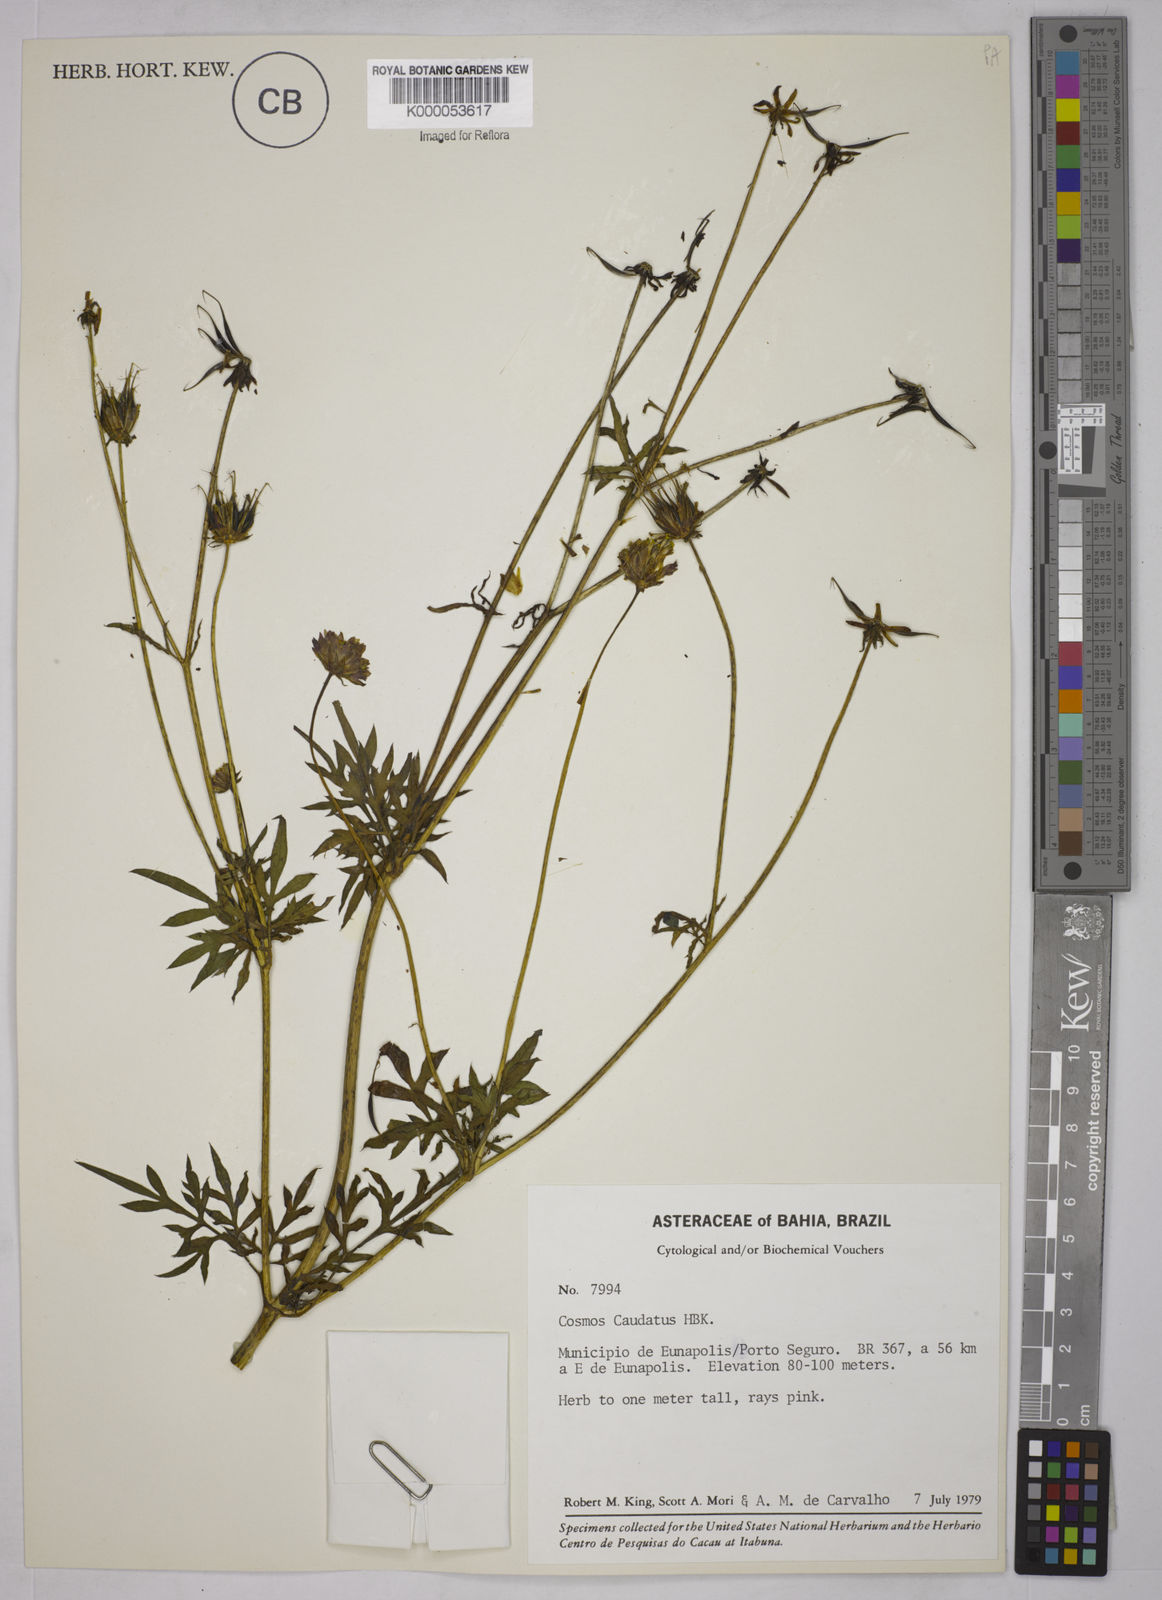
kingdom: Plantae
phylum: Tracheophyta
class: Magnoliopsida
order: Asterales
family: Asteraceae
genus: Cosmos
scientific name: Cosmos caudatus
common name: Wild cosmos
